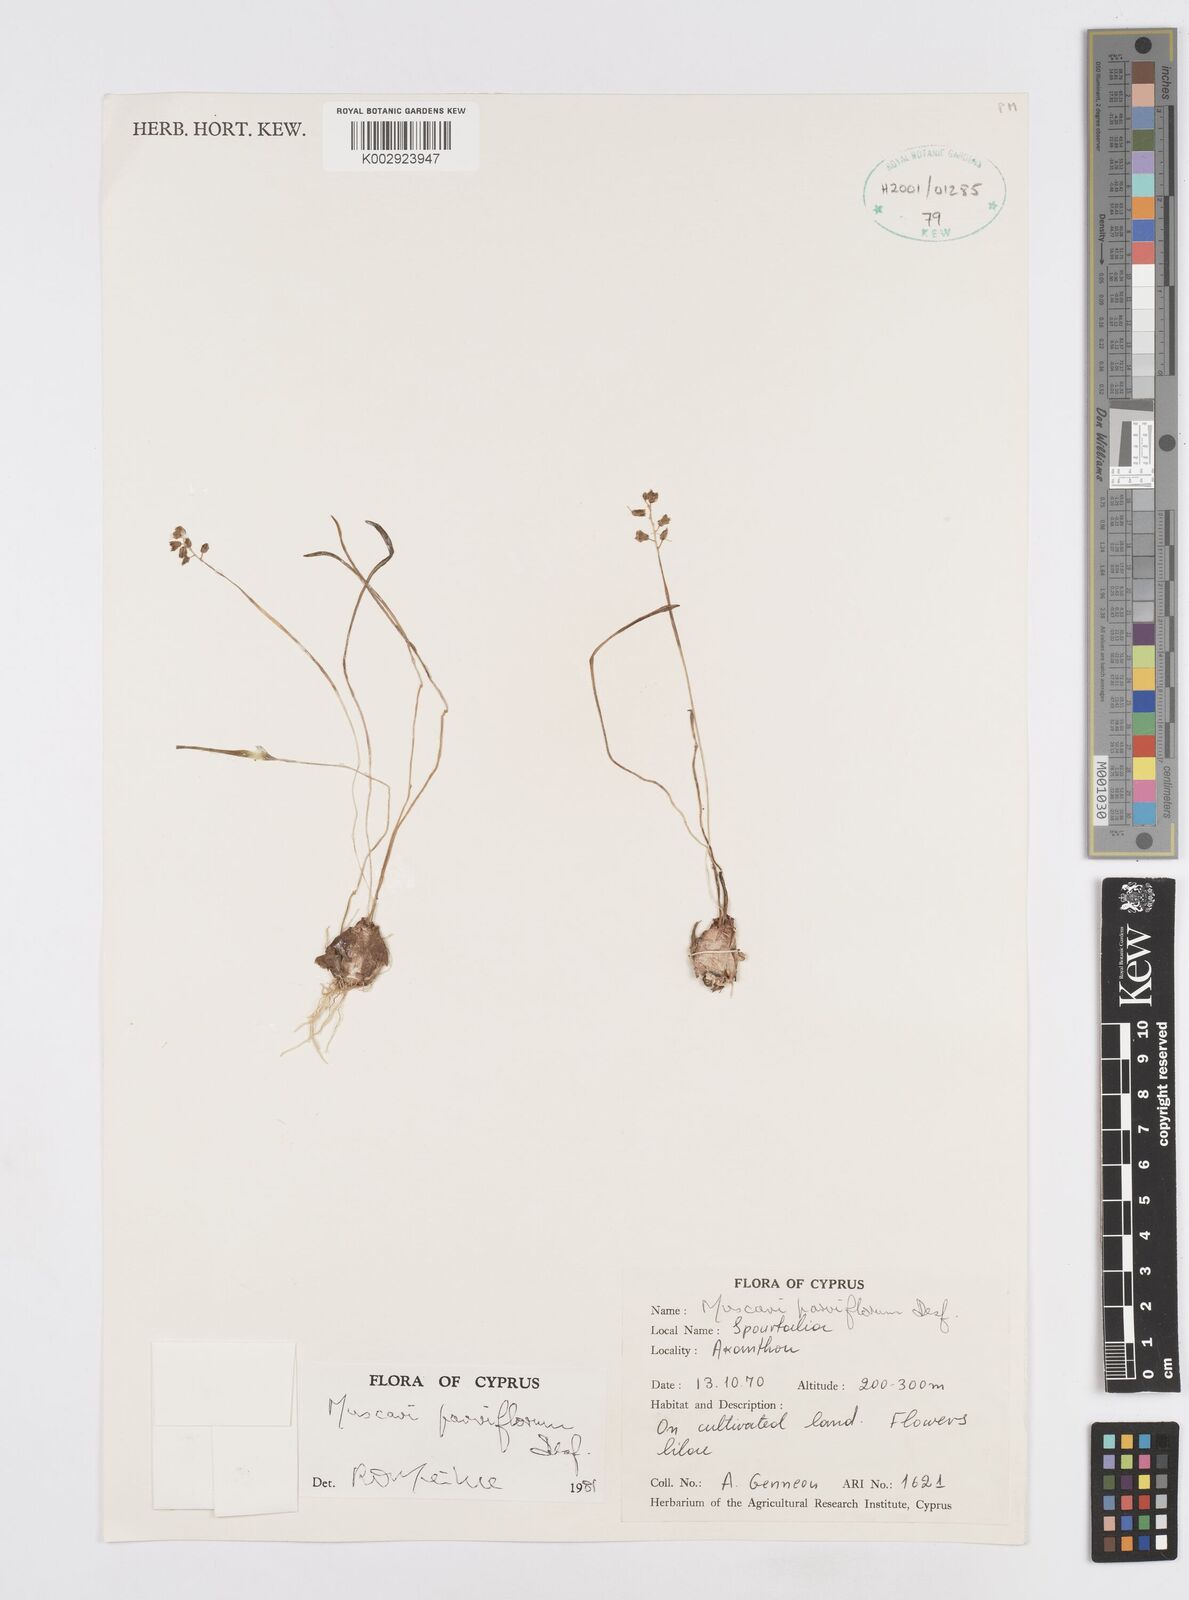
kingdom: Plantae
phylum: Tracheophyta
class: Liliopsida
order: Asparagales
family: Asparagaceae
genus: Muscari
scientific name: Muscari parviflorum
